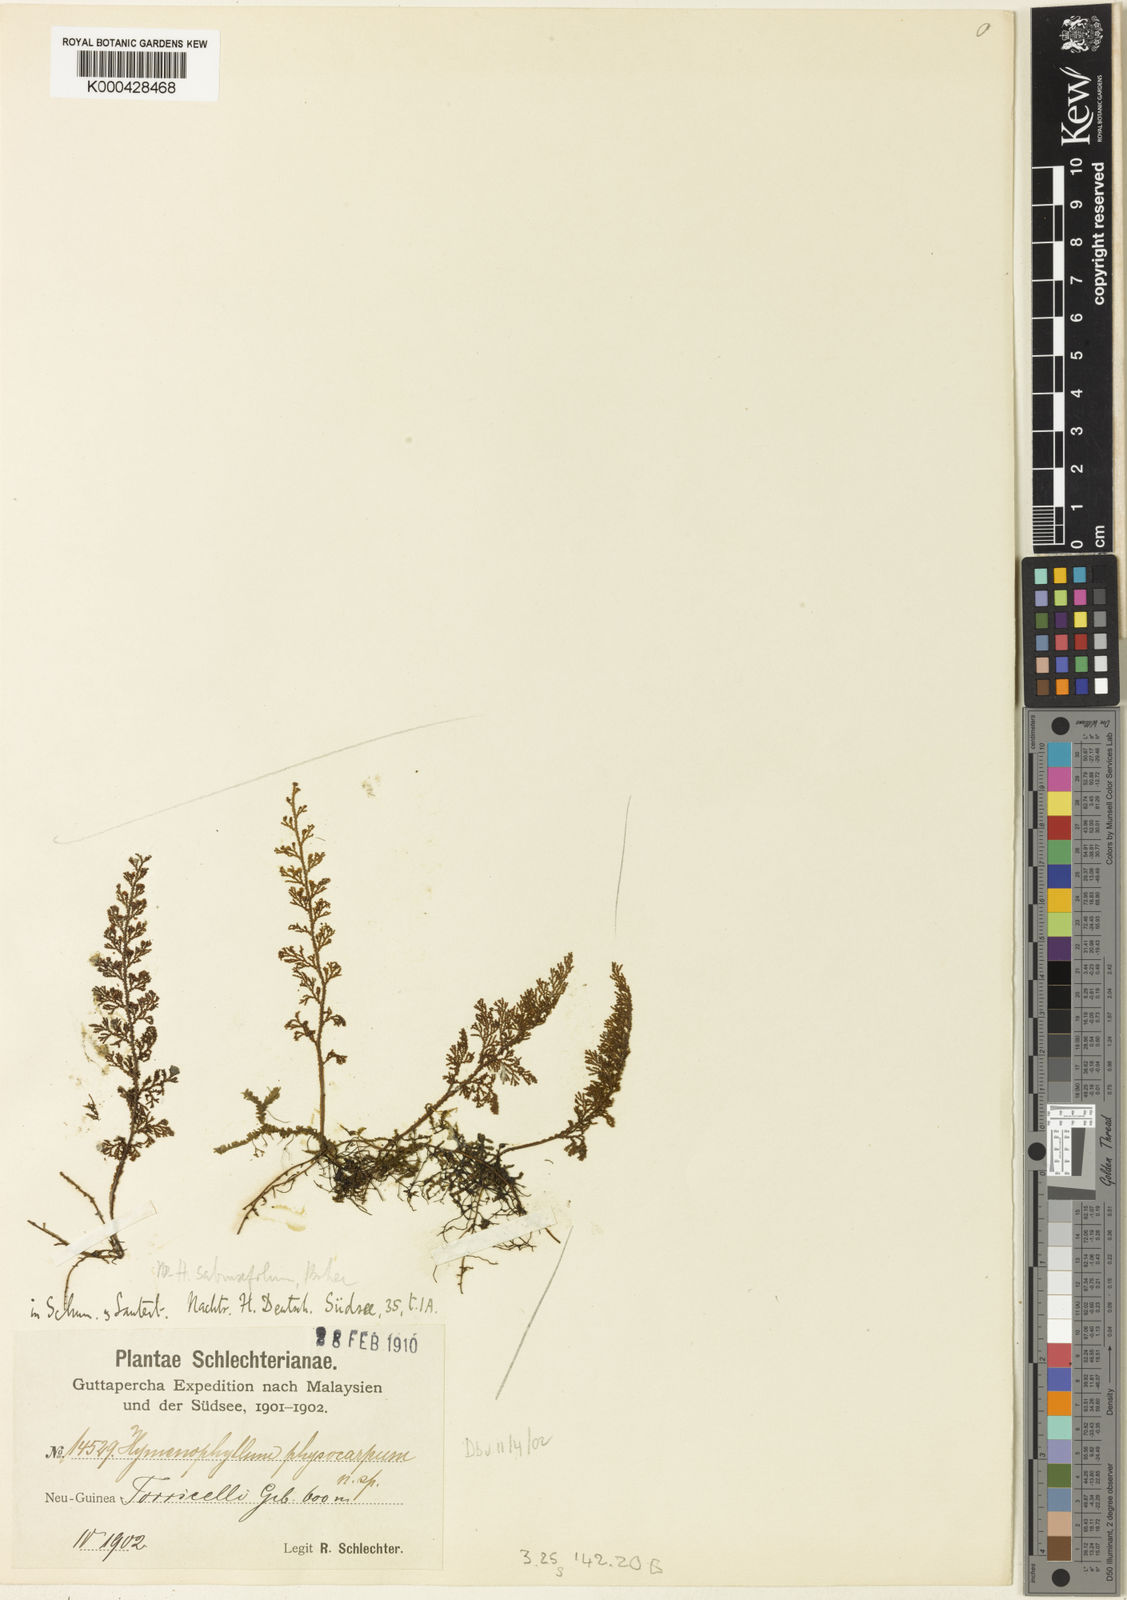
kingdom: Plantae
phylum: Tracheophyta
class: Polypodiopsida
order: Hymenophyllales
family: Hymenophyllaceae
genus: Hymenophyllum
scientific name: Hymenophyllum thuidium
